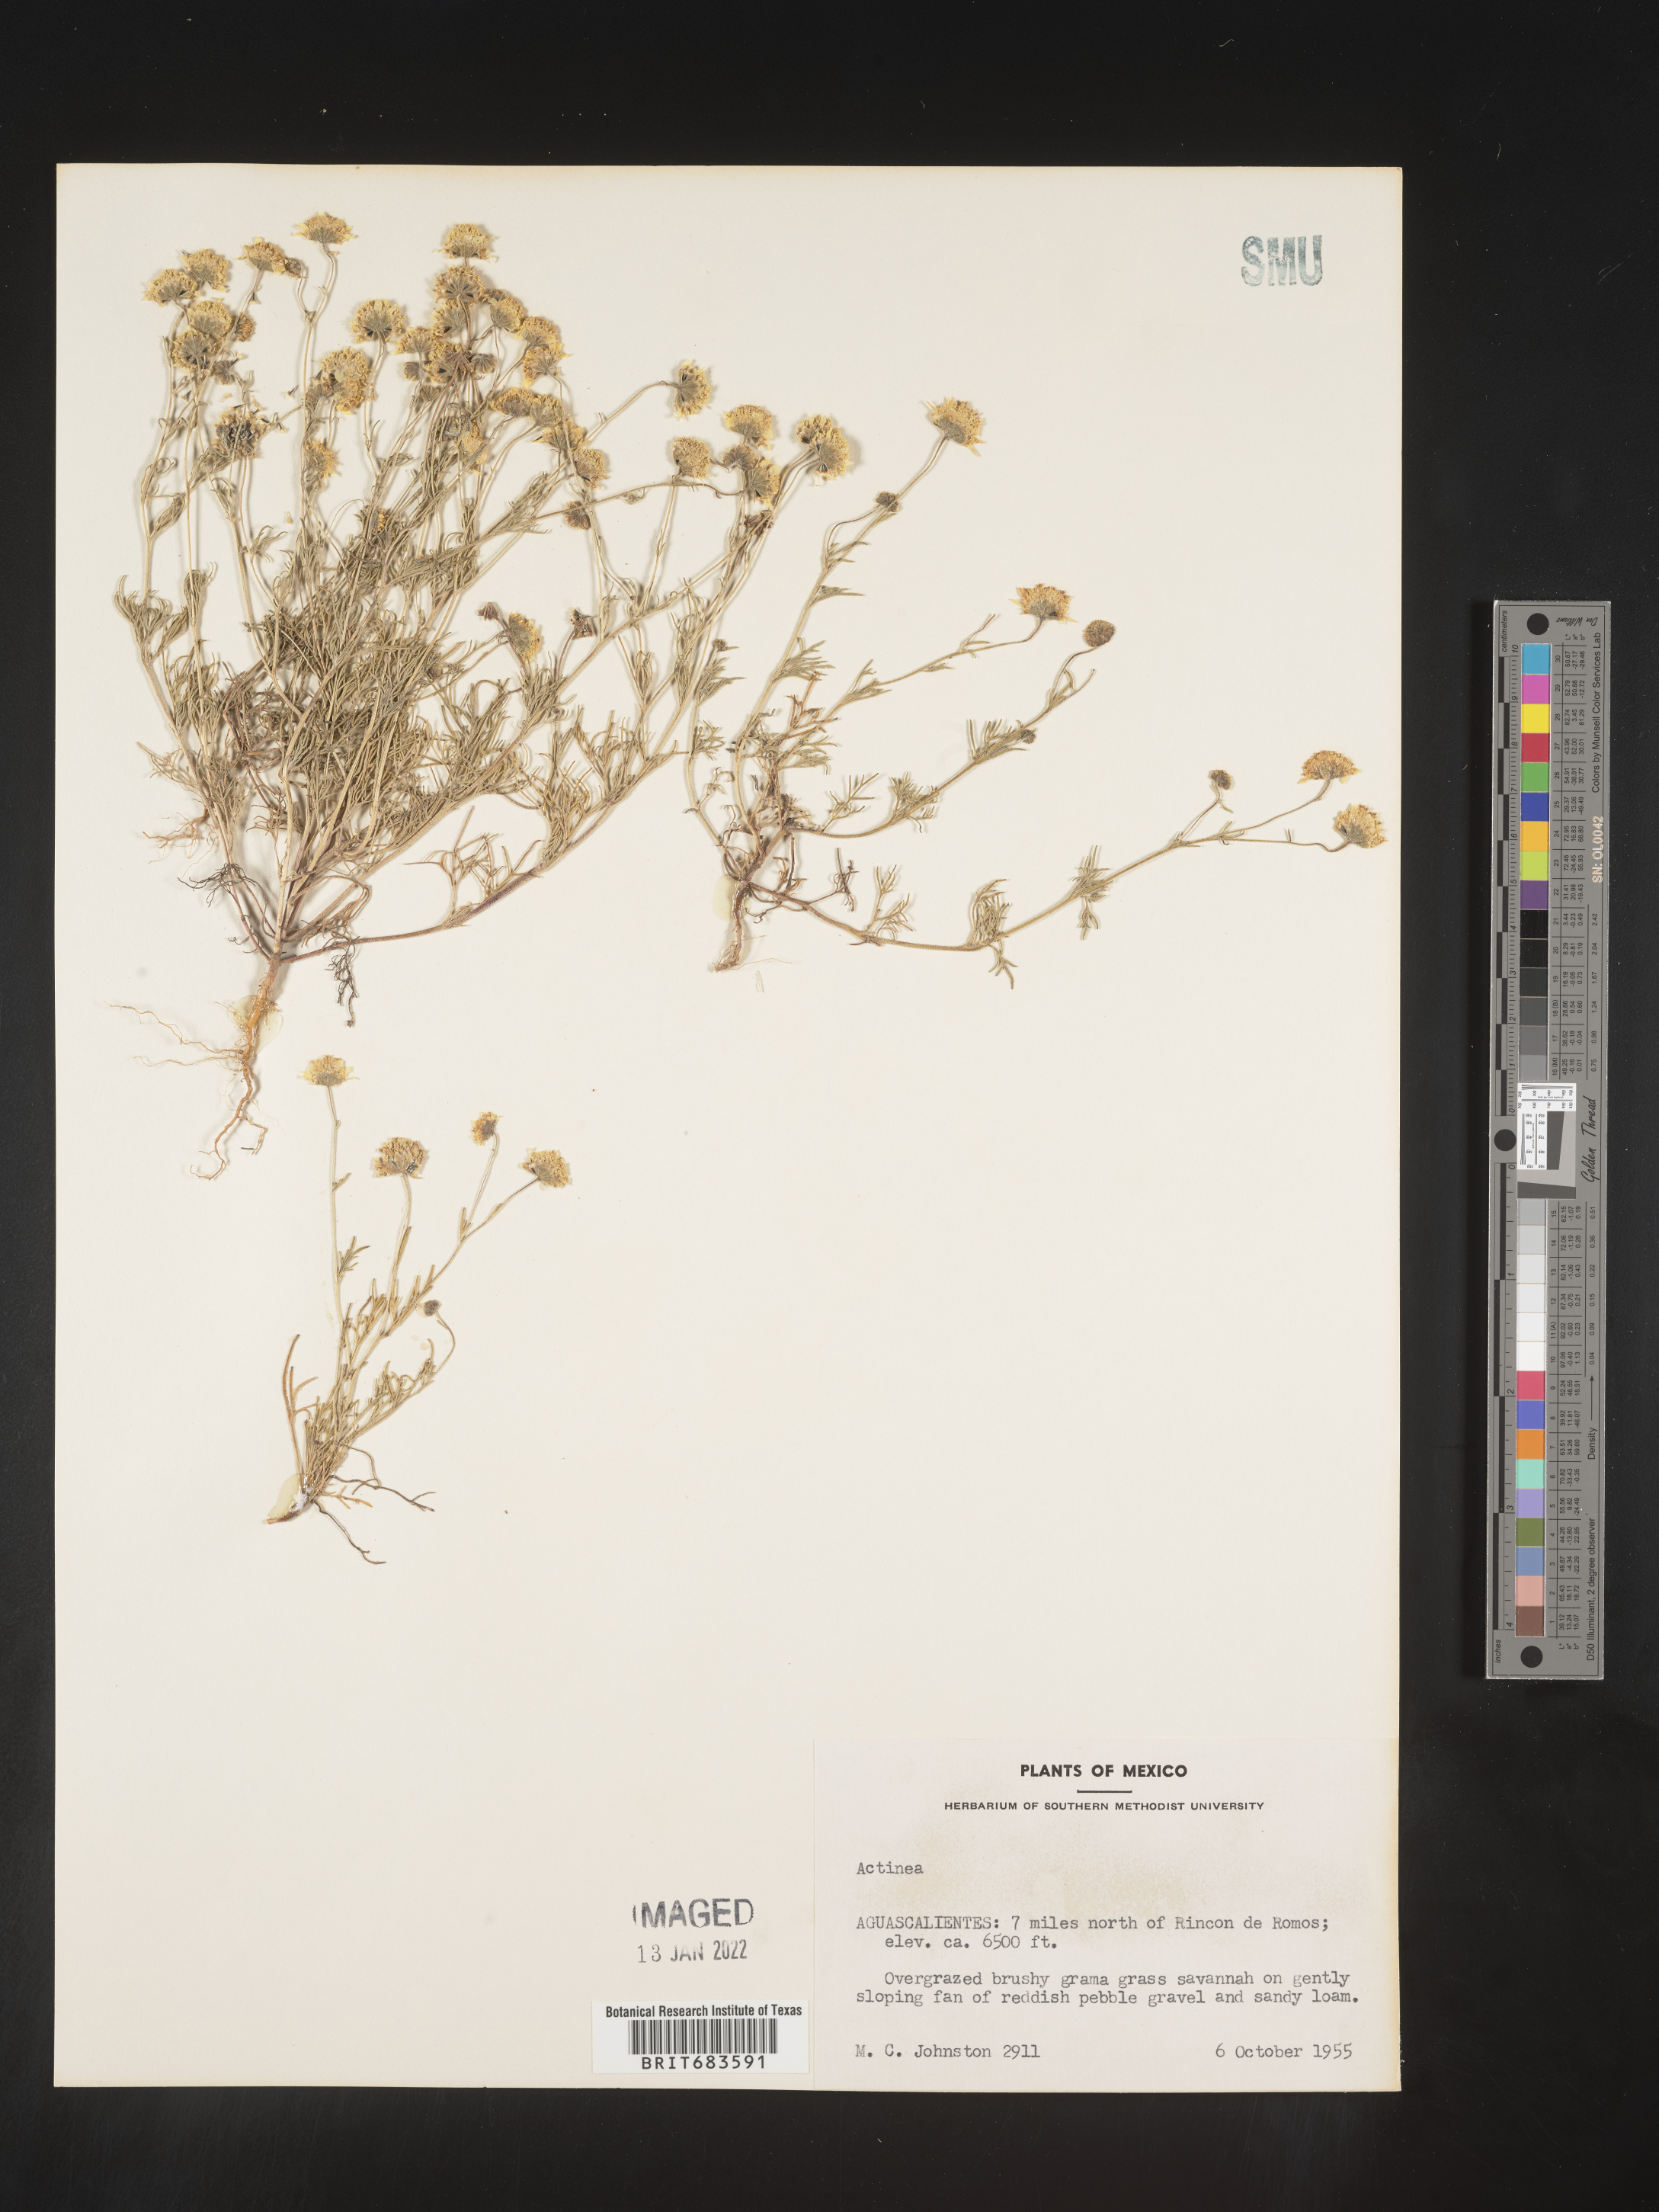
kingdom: Plantae
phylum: Tracheophyta
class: Magnoliopsida
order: Asterales
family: Asteraceae
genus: Bahia
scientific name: Bahia
